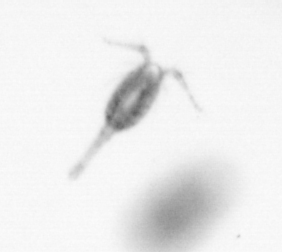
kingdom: Animalia
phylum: Arthropoda
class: Copepoda
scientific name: Copepoda
